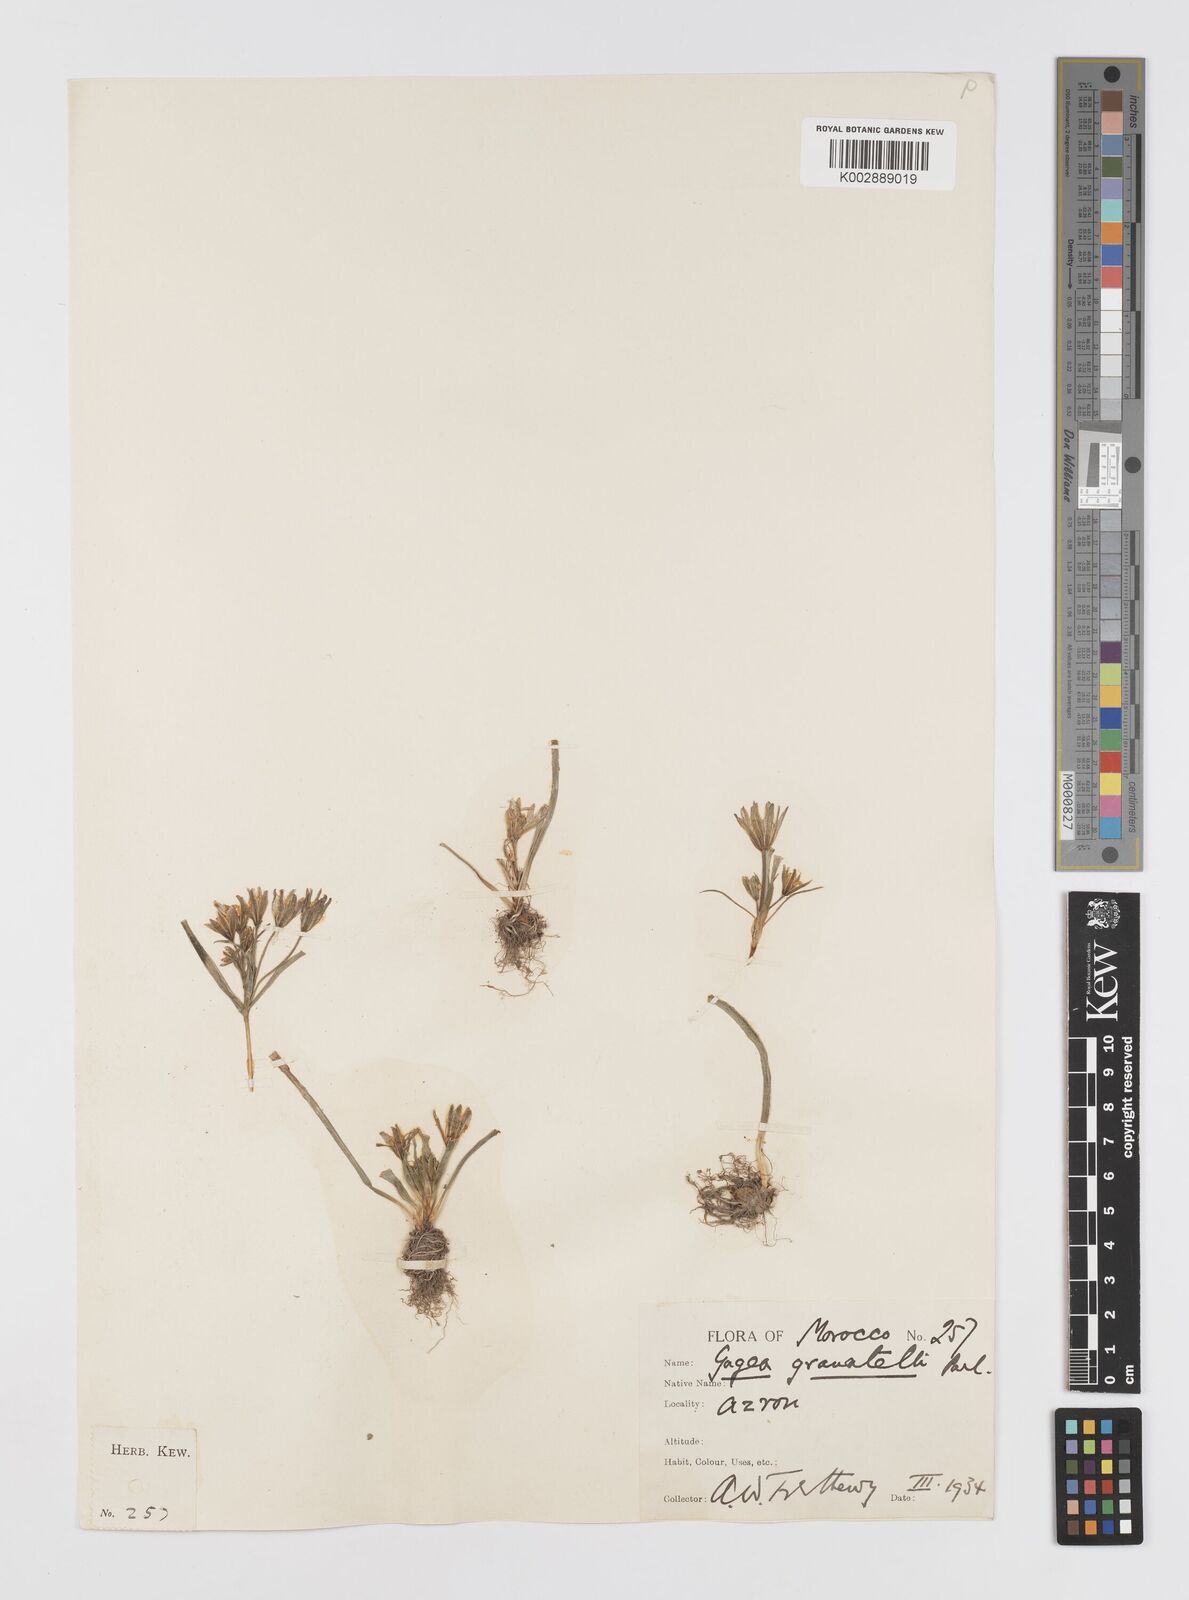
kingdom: Plantae
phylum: Tracheophyta
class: Liliopsida
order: Liliales
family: Liliaceae
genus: Gagea
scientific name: Gagea granatellii
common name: Granatelli’s gagea
